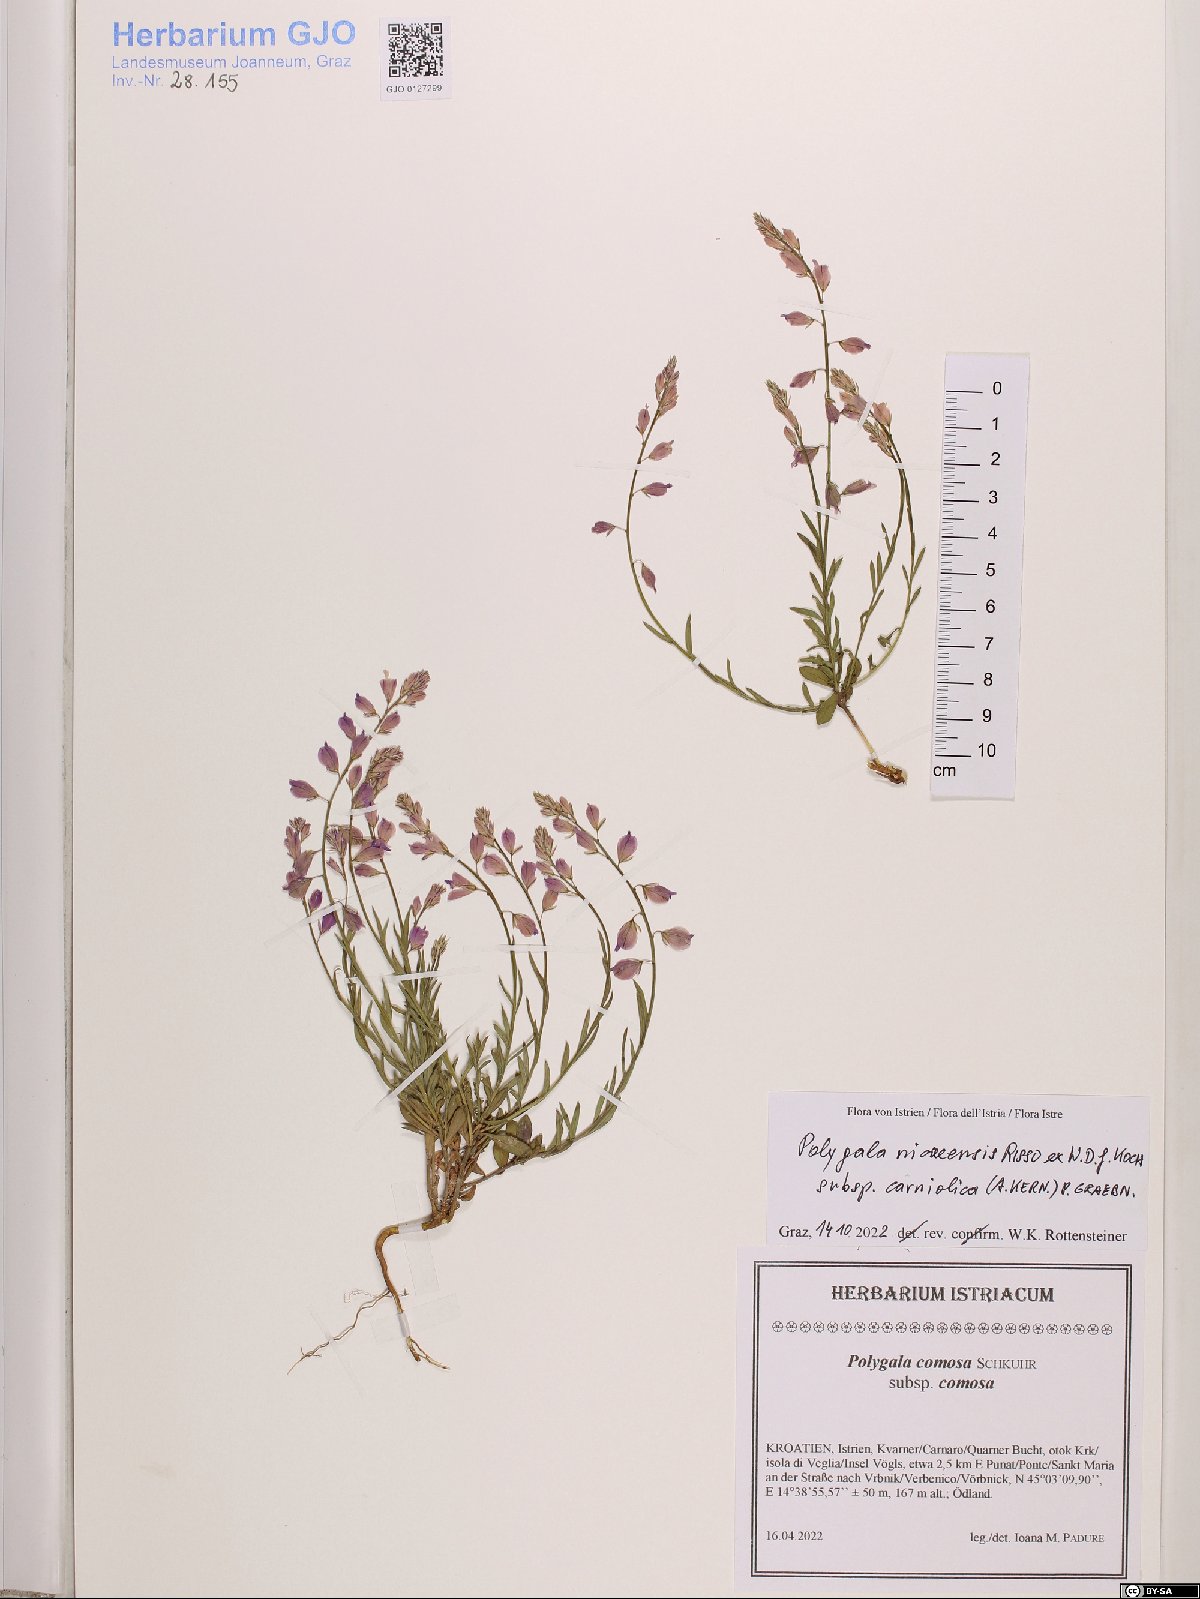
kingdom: Plantae
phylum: Tracheophyta
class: Magnoliopsida
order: Fabales
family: Polygalaceae
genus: Polygala
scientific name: Polygala
